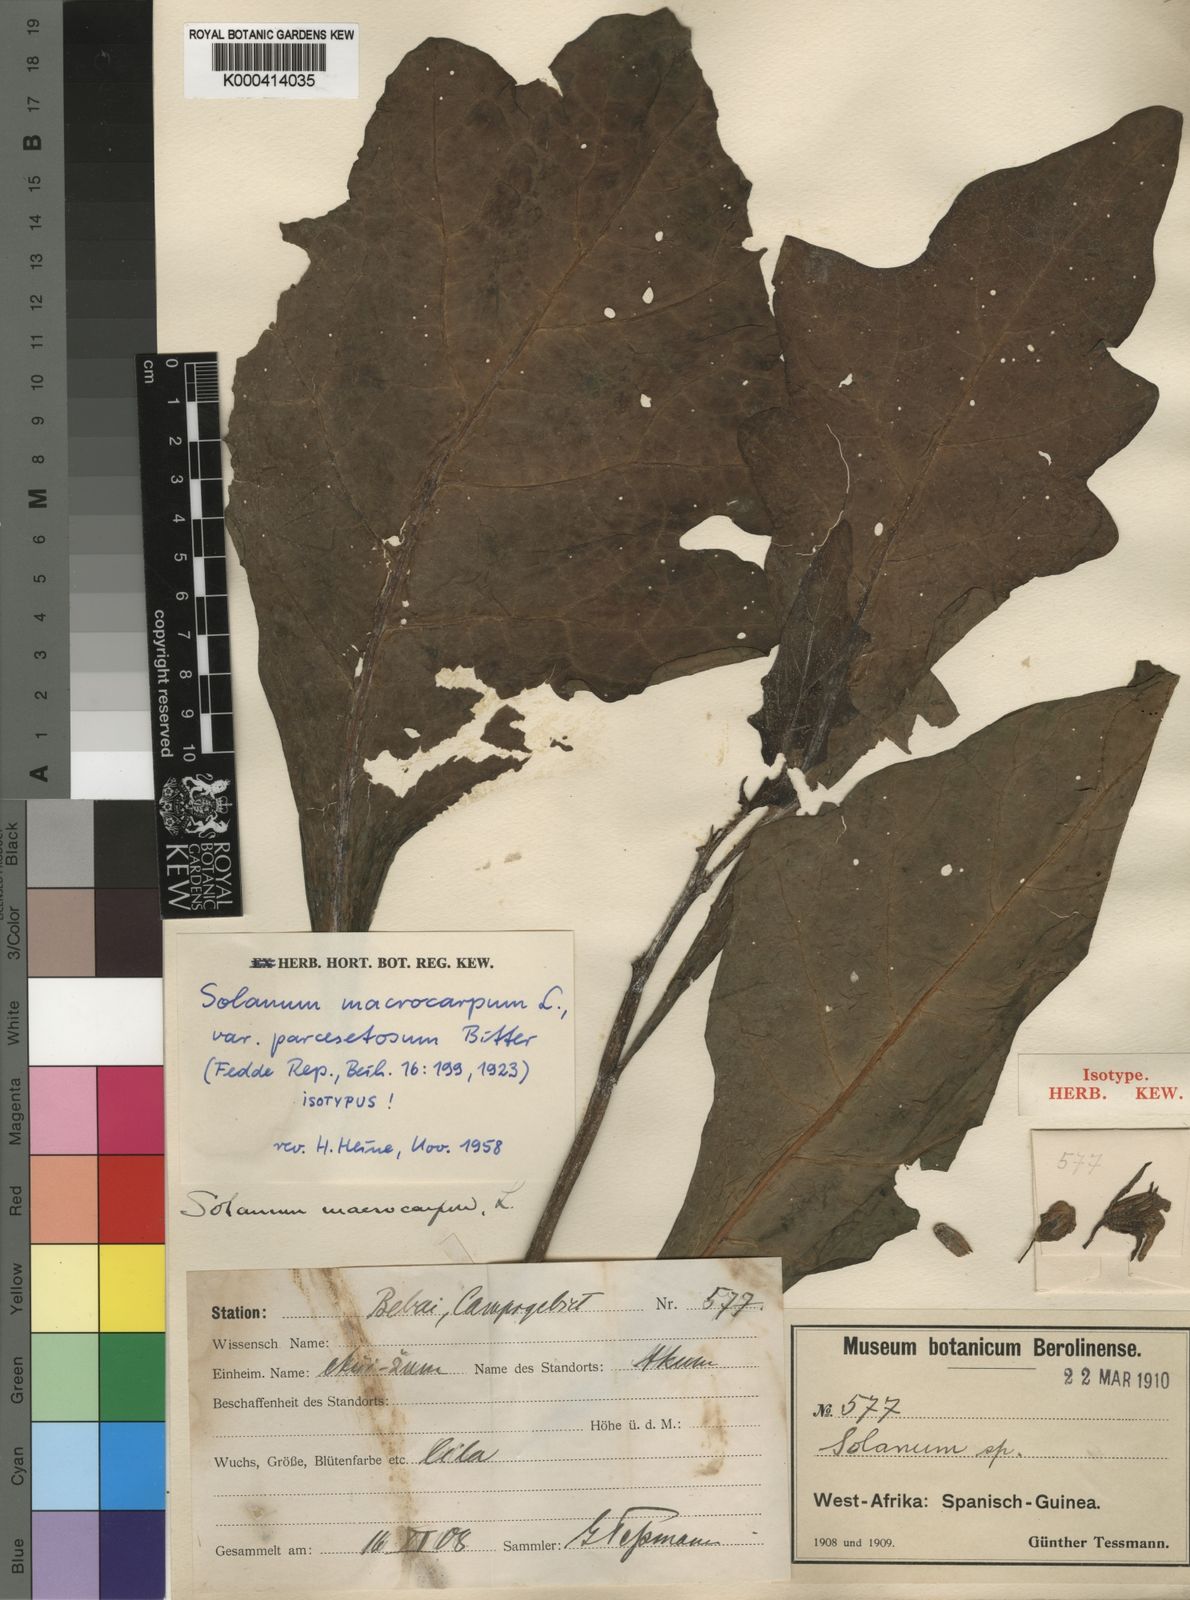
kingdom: Plantae
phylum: Tracheophyta
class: Magnoliopsida
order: Solanales
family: Solanaceae
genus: Solanum
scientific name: Solanum macrocarpon
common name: African eggplant
